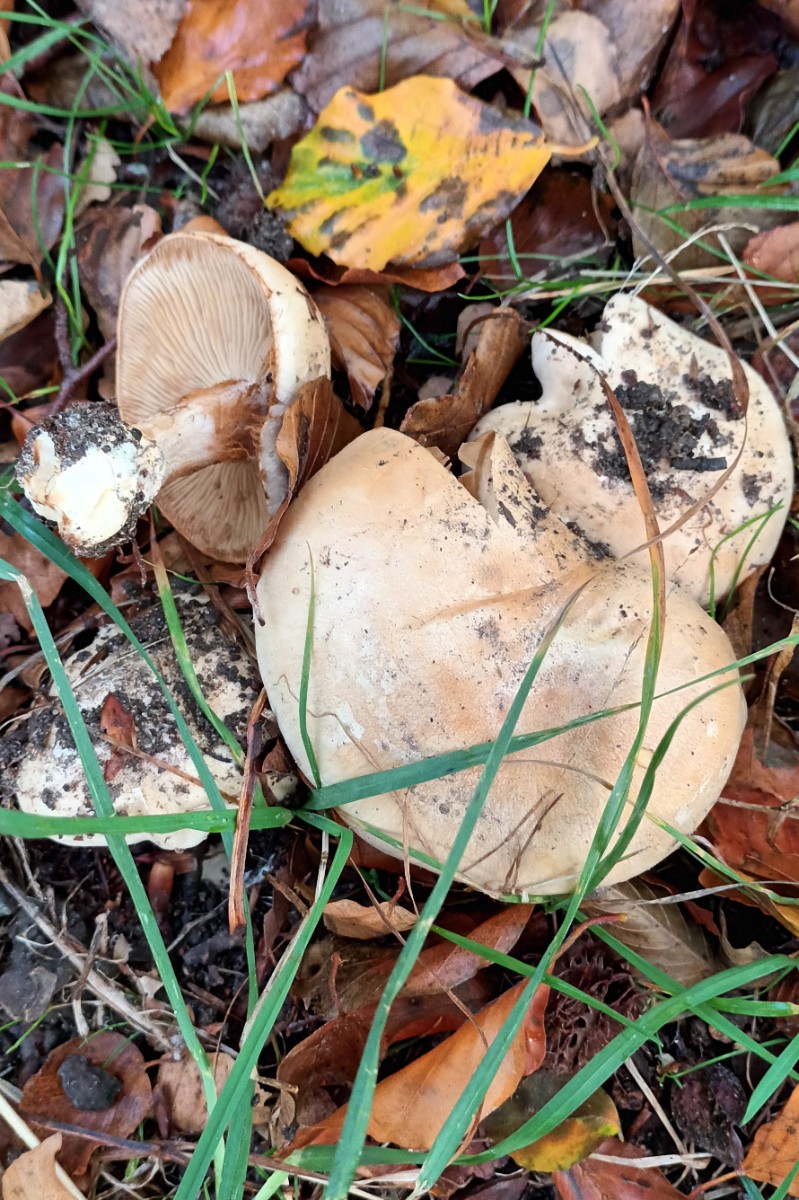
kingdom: Fungi
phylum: Basidiomycota
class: Agaricomycetes
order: Agaricales
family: Cortinariaceae
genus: Cortinarius
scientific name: Cortinarius foetens
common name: stribet slørhat
